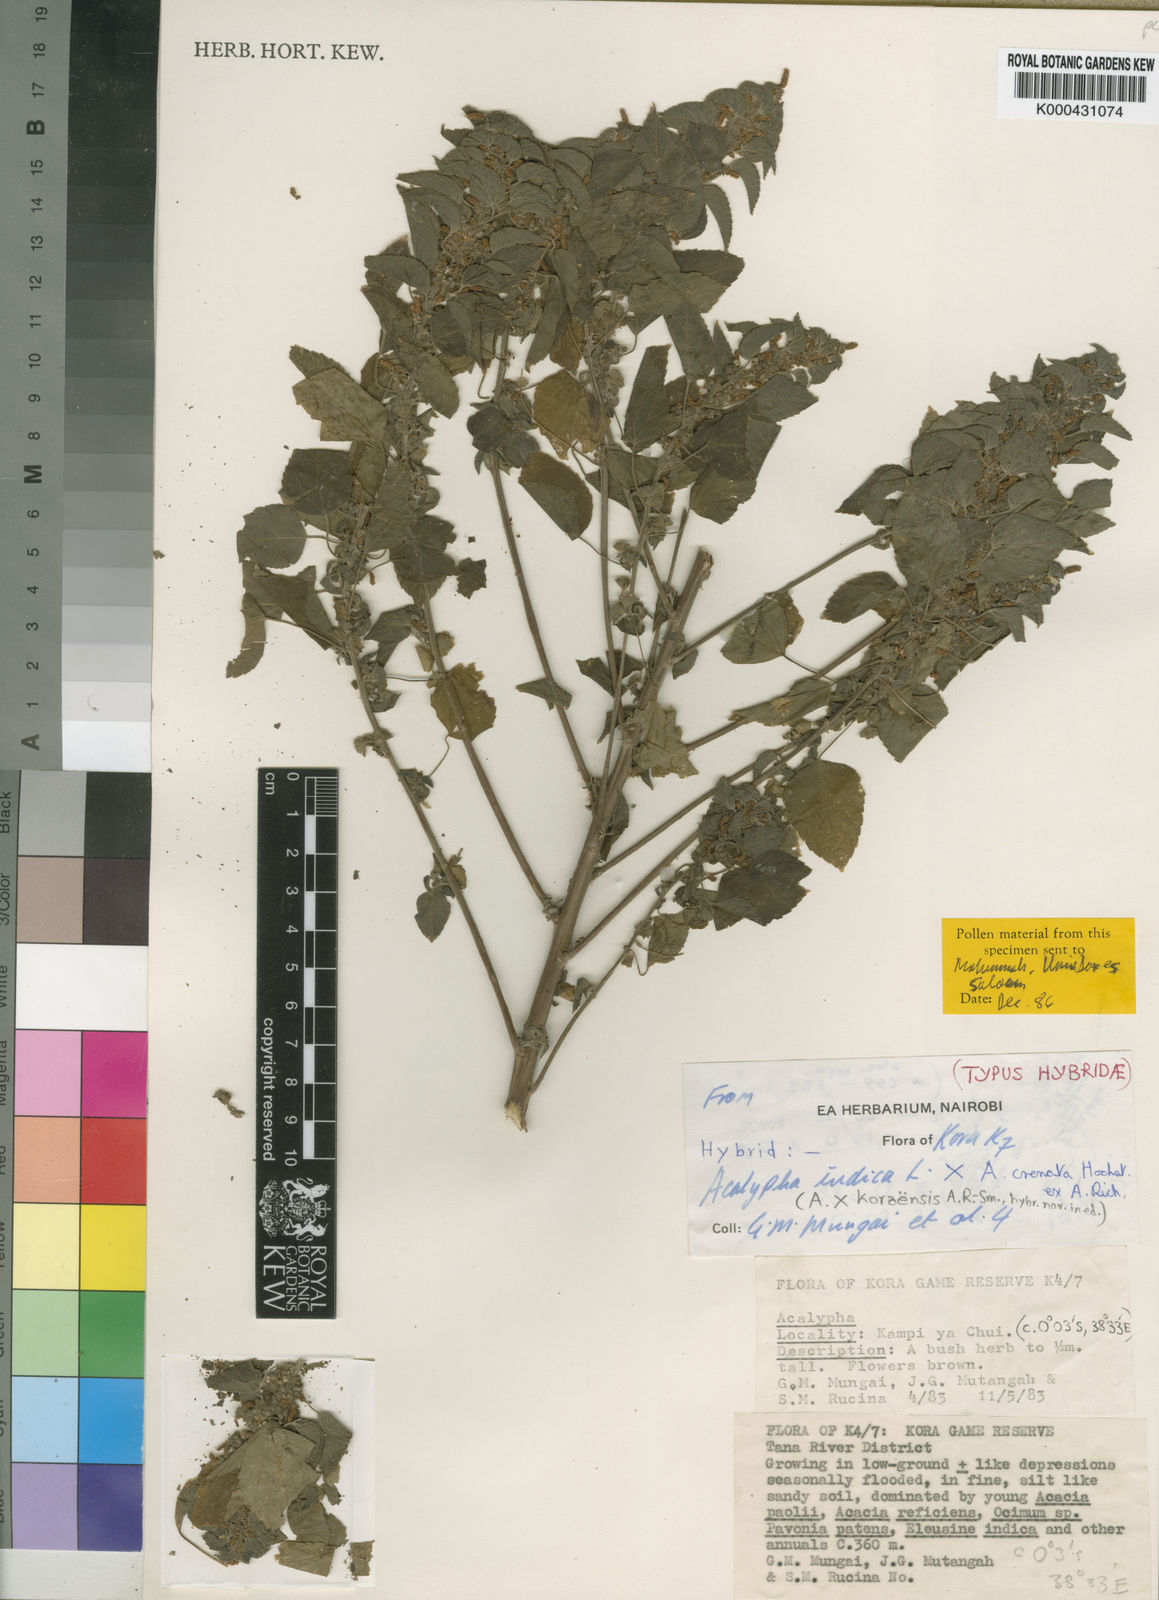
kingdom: Plantae
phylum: Tracheophyta
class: Magnoliopsida
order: Malpighiales
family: Euphorbiaceae
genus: Acalypha
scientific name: Acalypha koraensis
